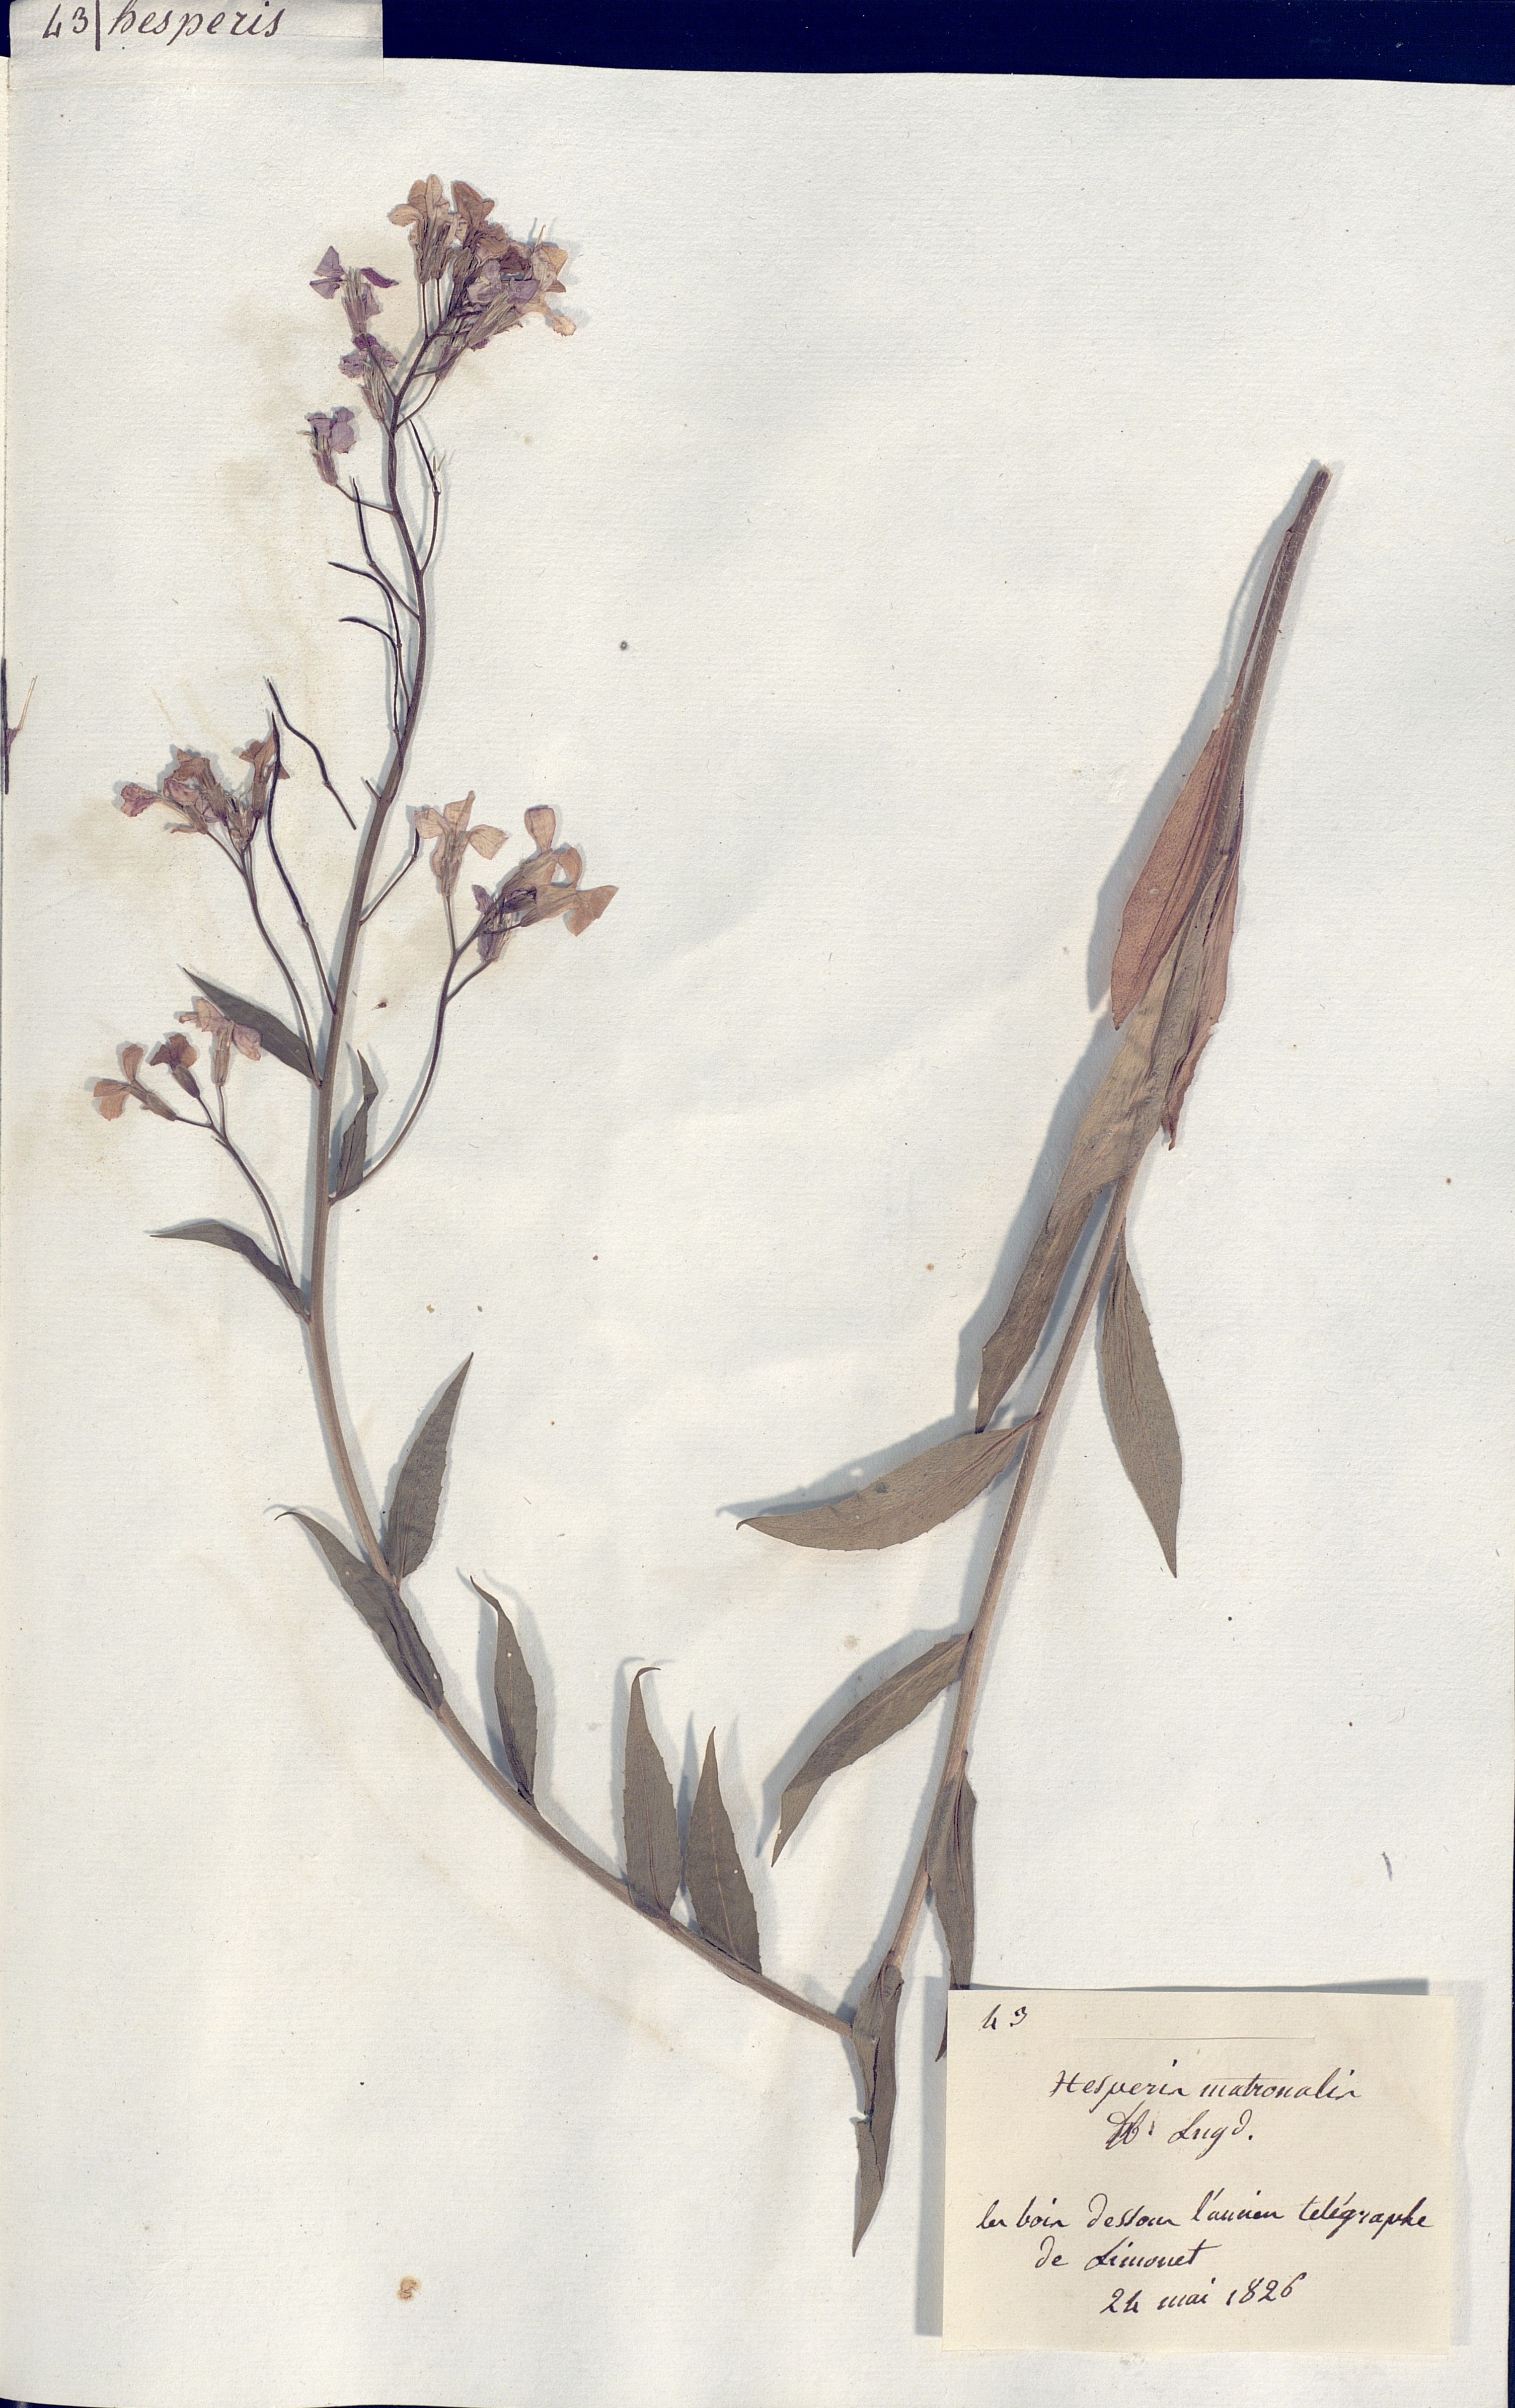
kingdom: Plantae
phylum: Tracheophyta
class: Magnoliopsida
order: Brassicales
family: Brassicaceae
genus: Hesperis
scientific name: Hesperis matronalis
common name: Dame's-violet
